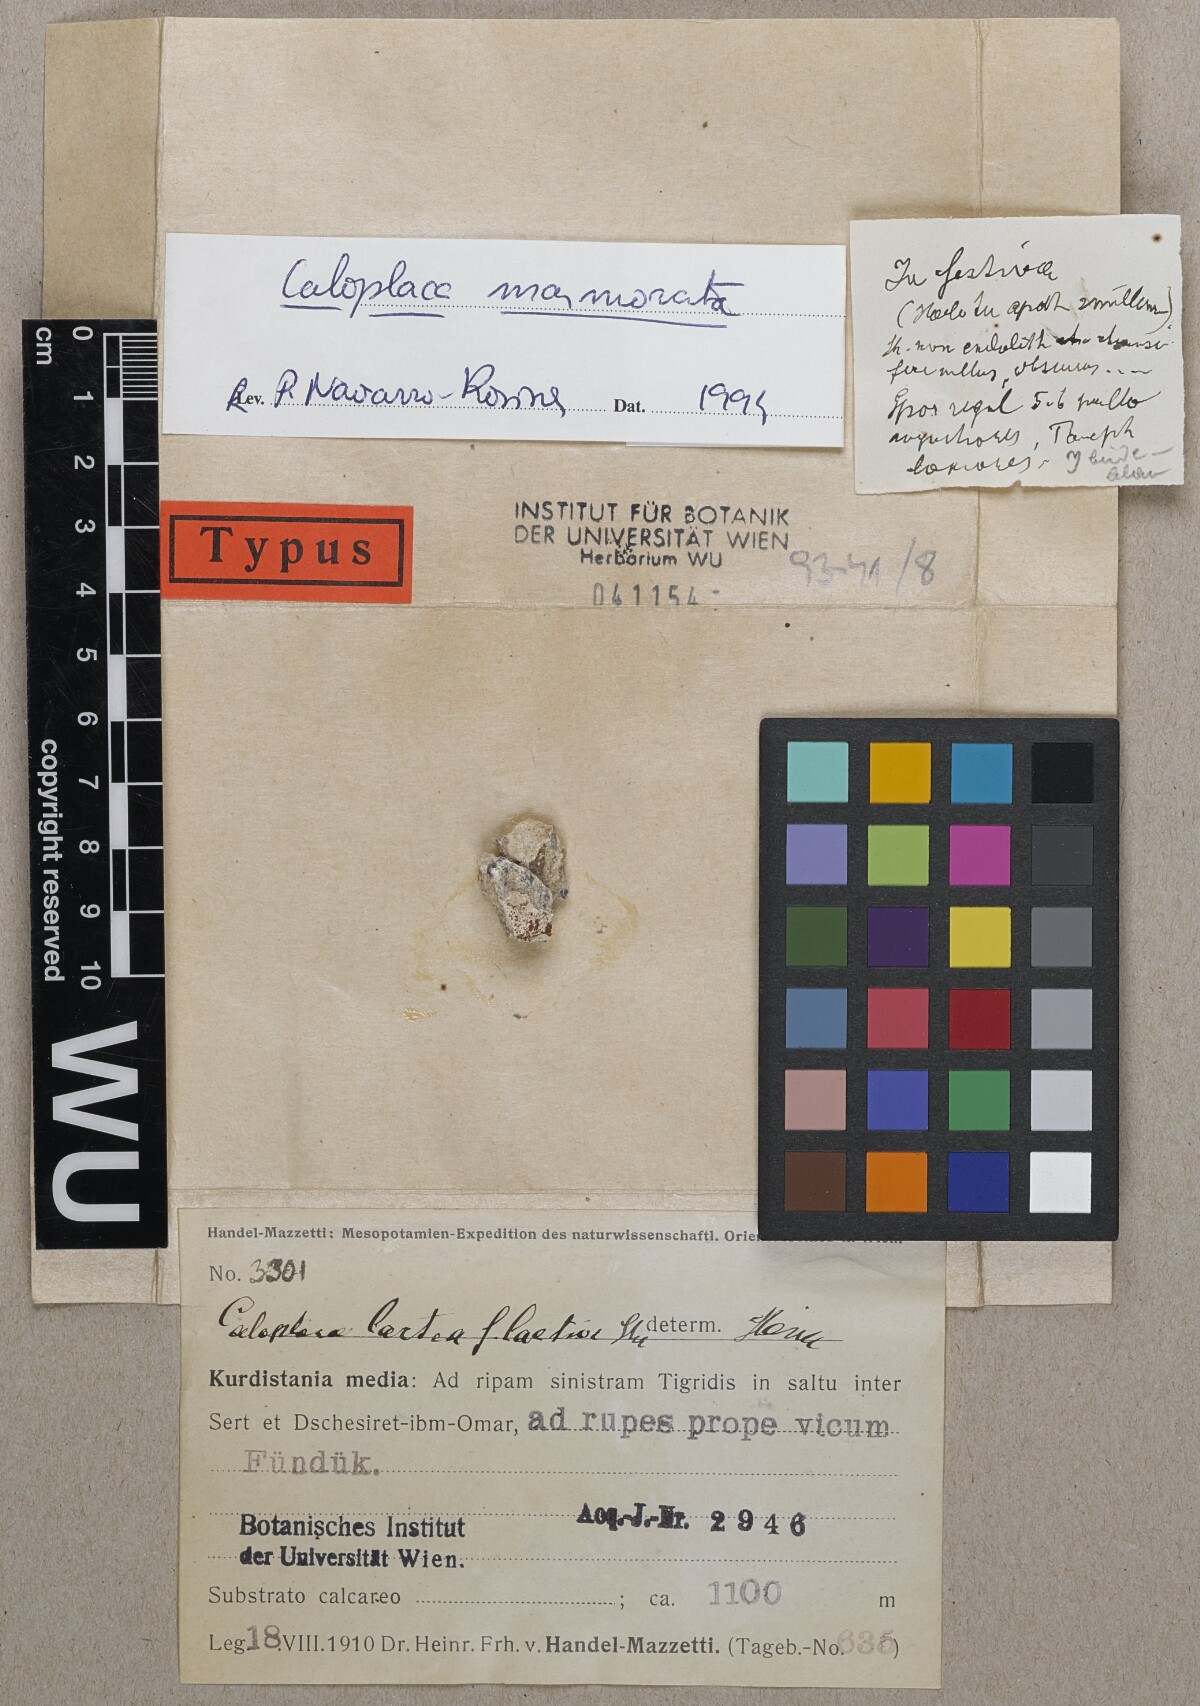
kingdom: Fungi
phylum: Ascomycota
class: Lecanoromycetes
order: Teloschistales
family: Teloschistaceae
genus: Caloplaca
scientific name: Caloplaca lactea
